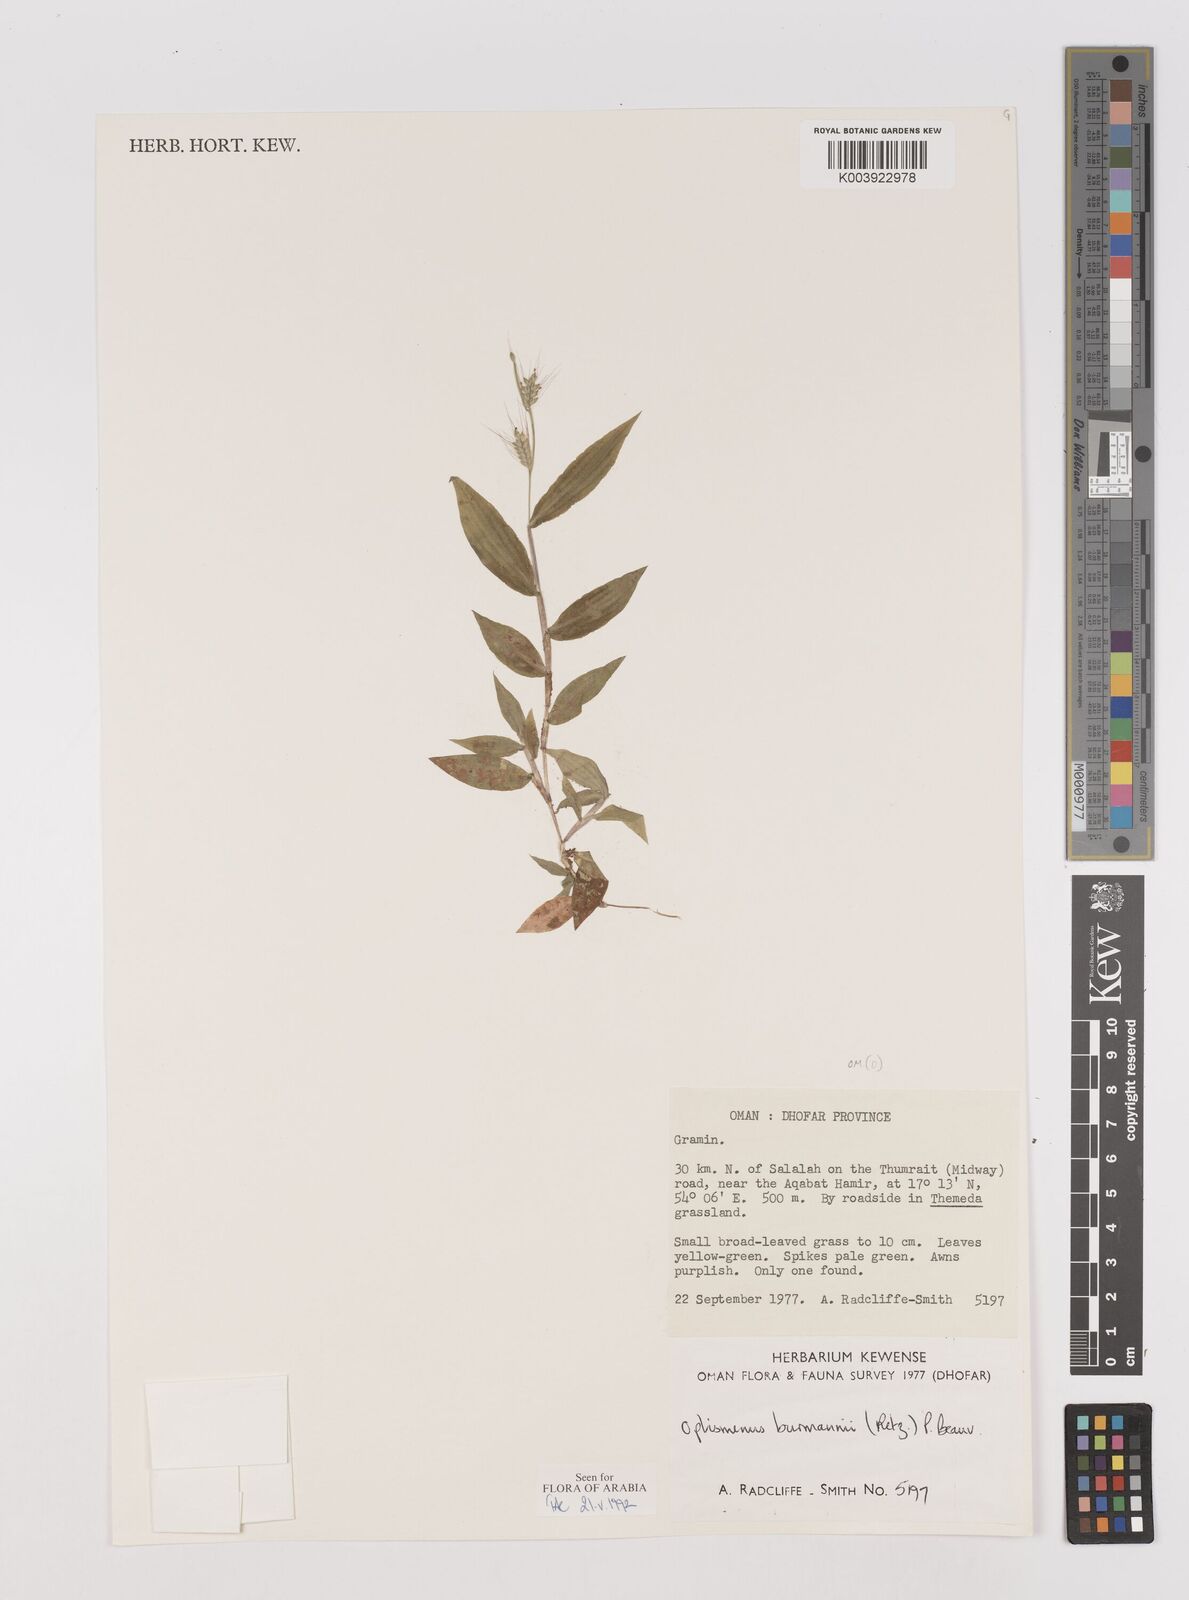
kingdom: Plantae
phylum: Tracheophyta
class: Liliopsida
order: Poales
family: Poaceae
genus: Oplismenus
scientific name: Oplismenus burmanni
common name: Burmann's basketgrass
